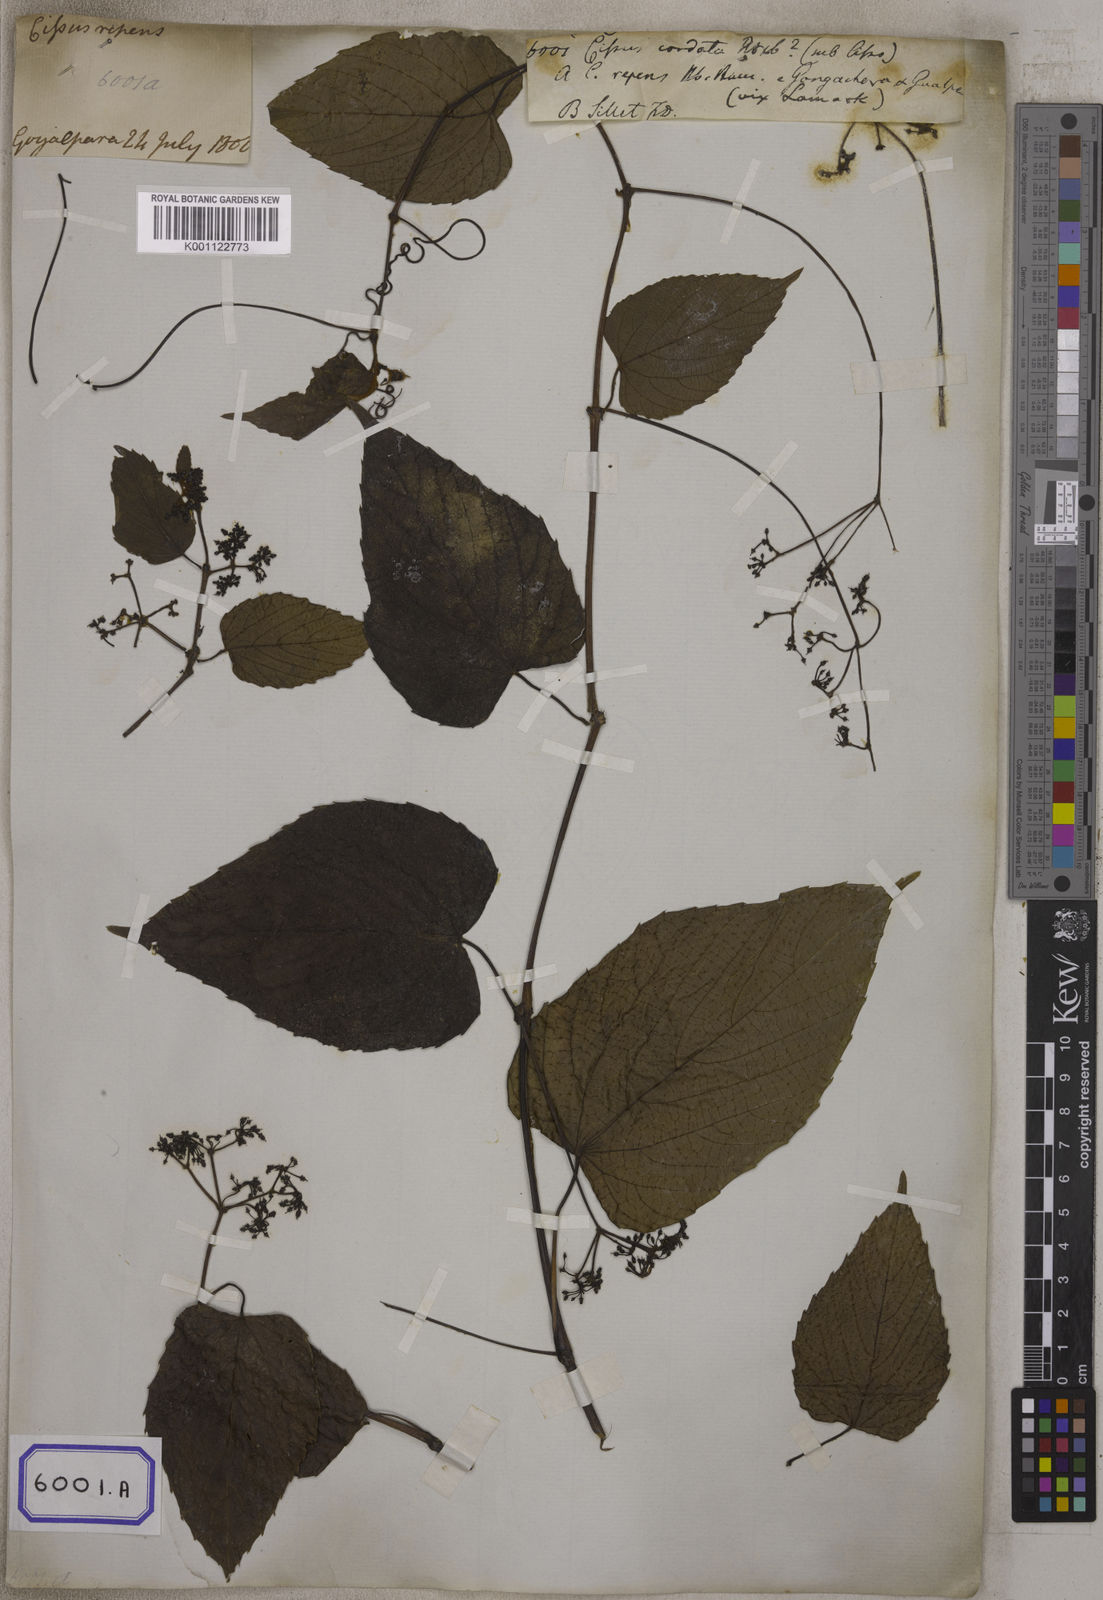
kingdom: Plantae
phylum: Tracheophyta
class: Magnoliopsida
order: Vitales
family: Vitaceae
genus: Cissus
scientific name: Cissus repens
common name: Cissus
